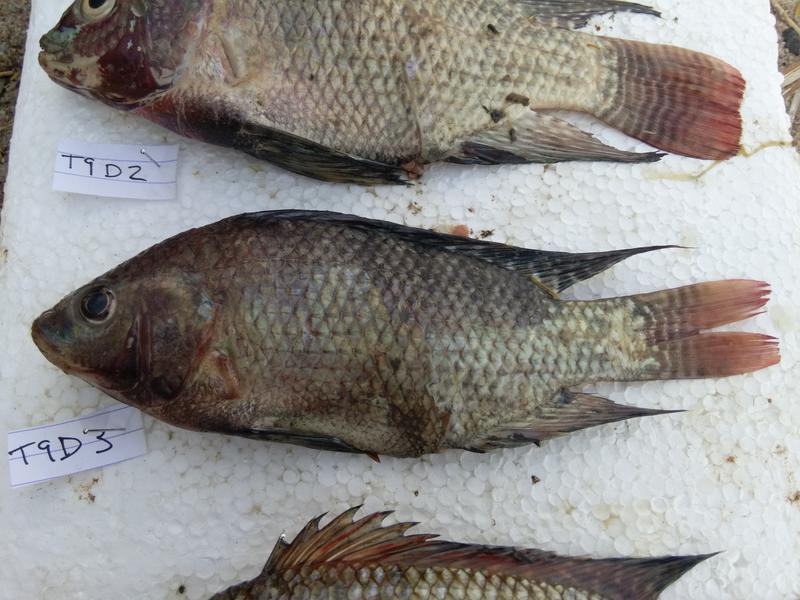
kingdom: Animalia
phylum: Chordata
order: Perciformes
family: Cichlidae
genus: Oreochromis
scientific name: Oreochromis niloticus
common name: Nile tilapia
